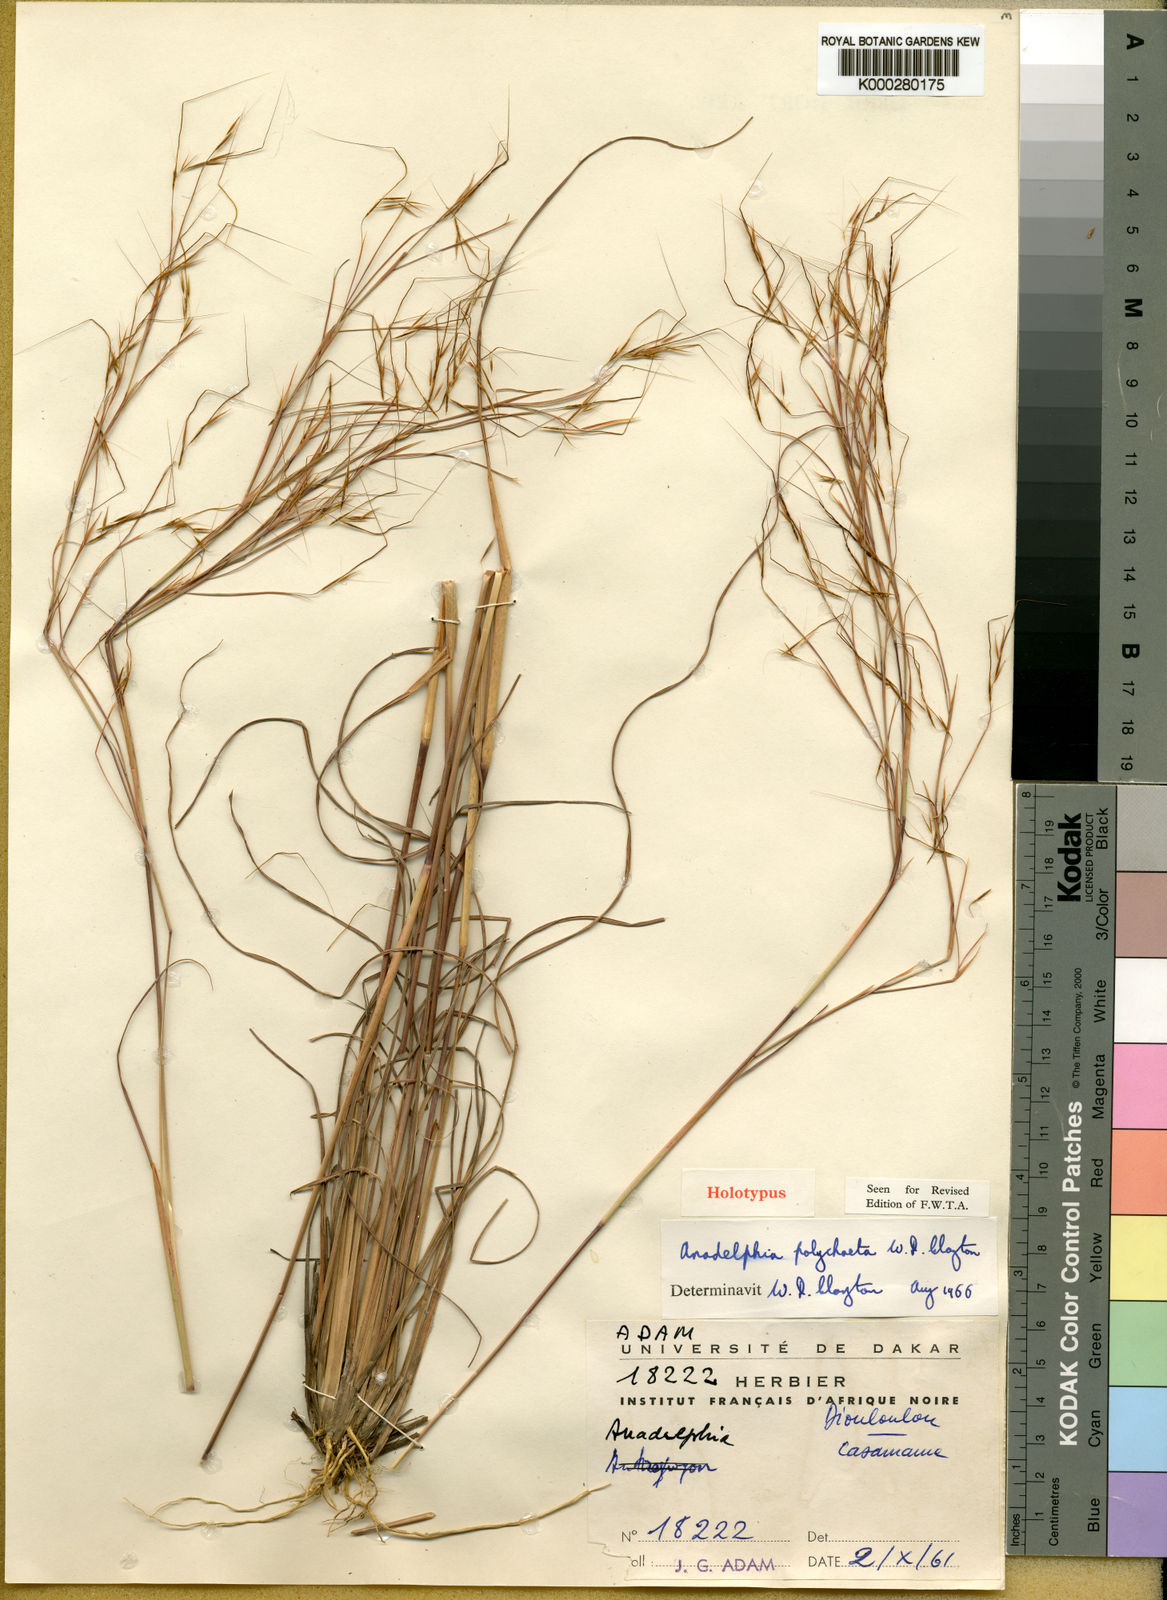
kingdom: Plantae
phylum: Tracheophyta
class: Liliopsida
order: Poales
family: Poaceae
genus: Anadelphia
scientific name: Anadelphia polychaeta
